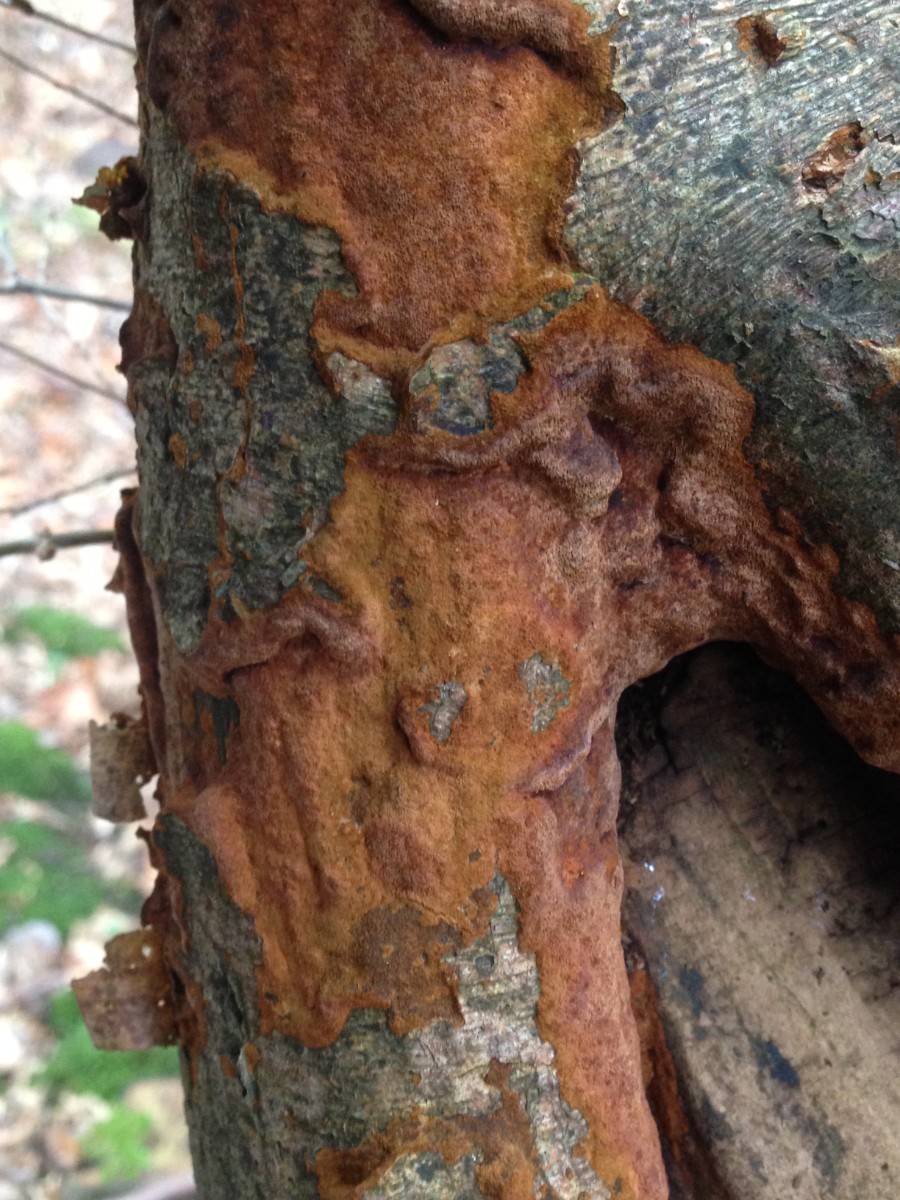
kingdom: Fungi
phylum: Basidiomycota
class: Agaricomycetes
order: Hymenochaetales
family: Hymenochaetaceae
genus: Fuscoporia
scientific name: Fuscoporia ferrea
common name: skorpe-ildporesvamp
